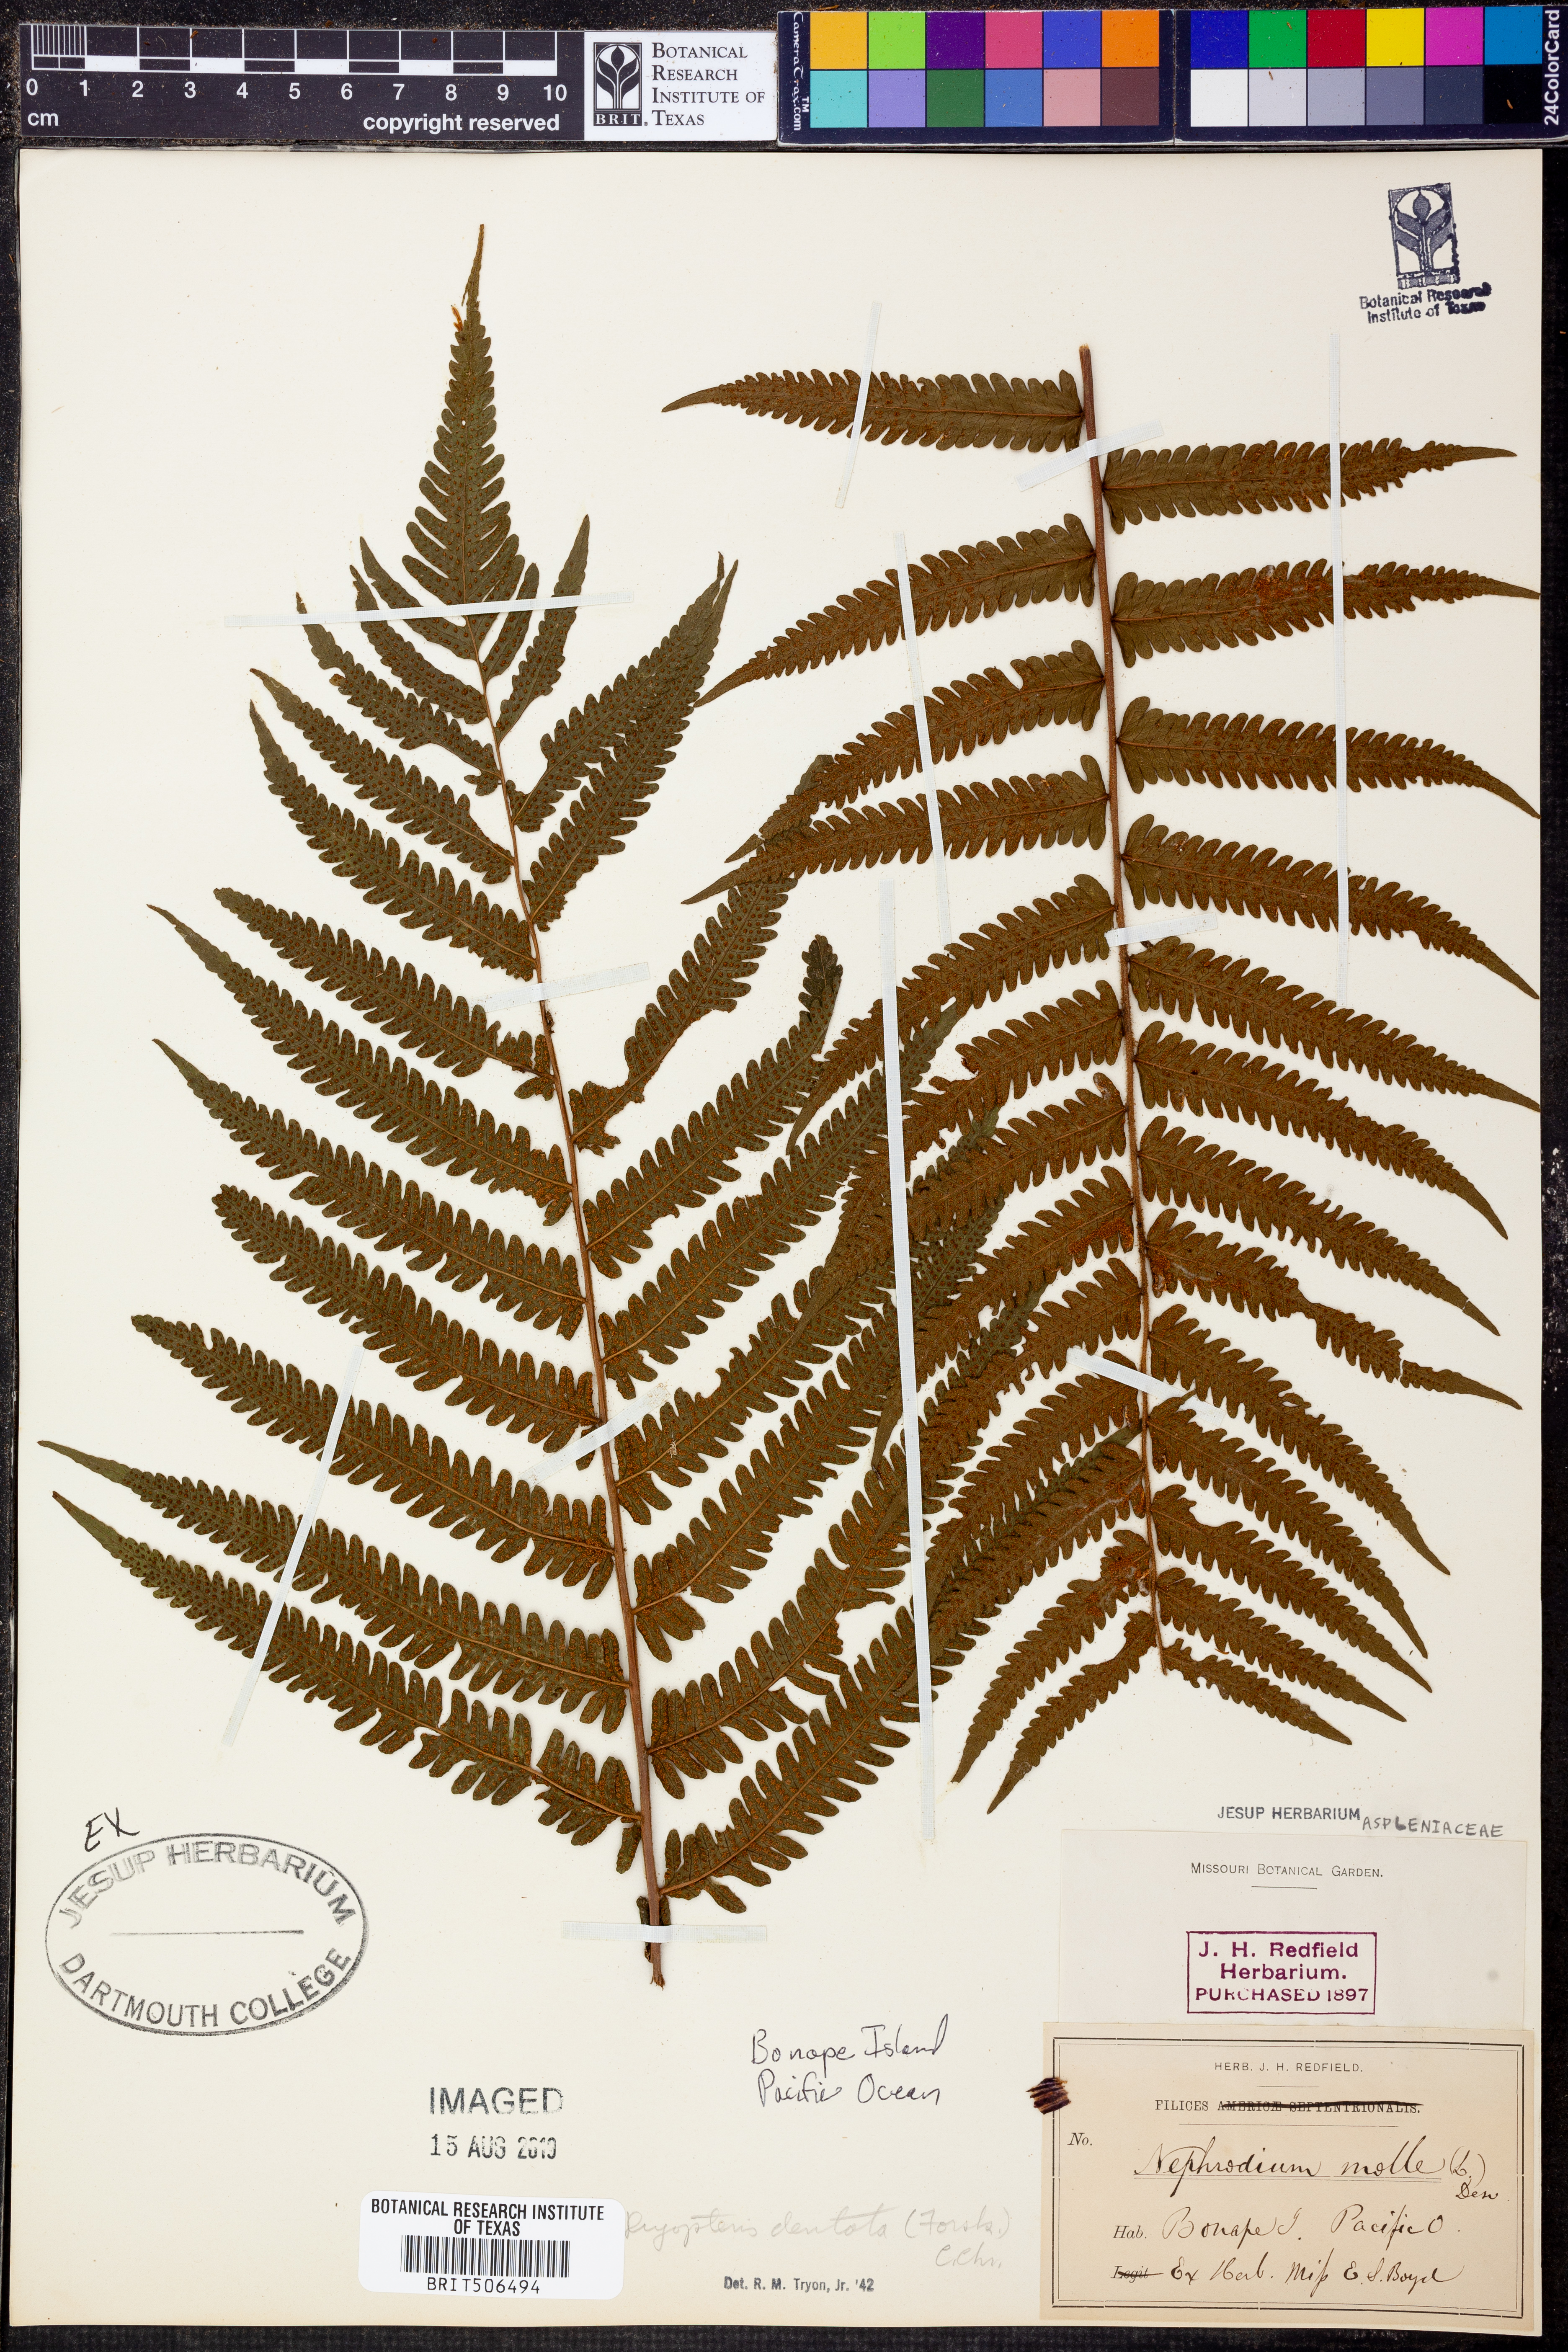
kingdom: Plantae
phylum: Tracheophyta
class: Polypodiopsida
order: Polypodiales
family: Thelypteridaceae
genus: Christella
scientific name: Christella dentata
